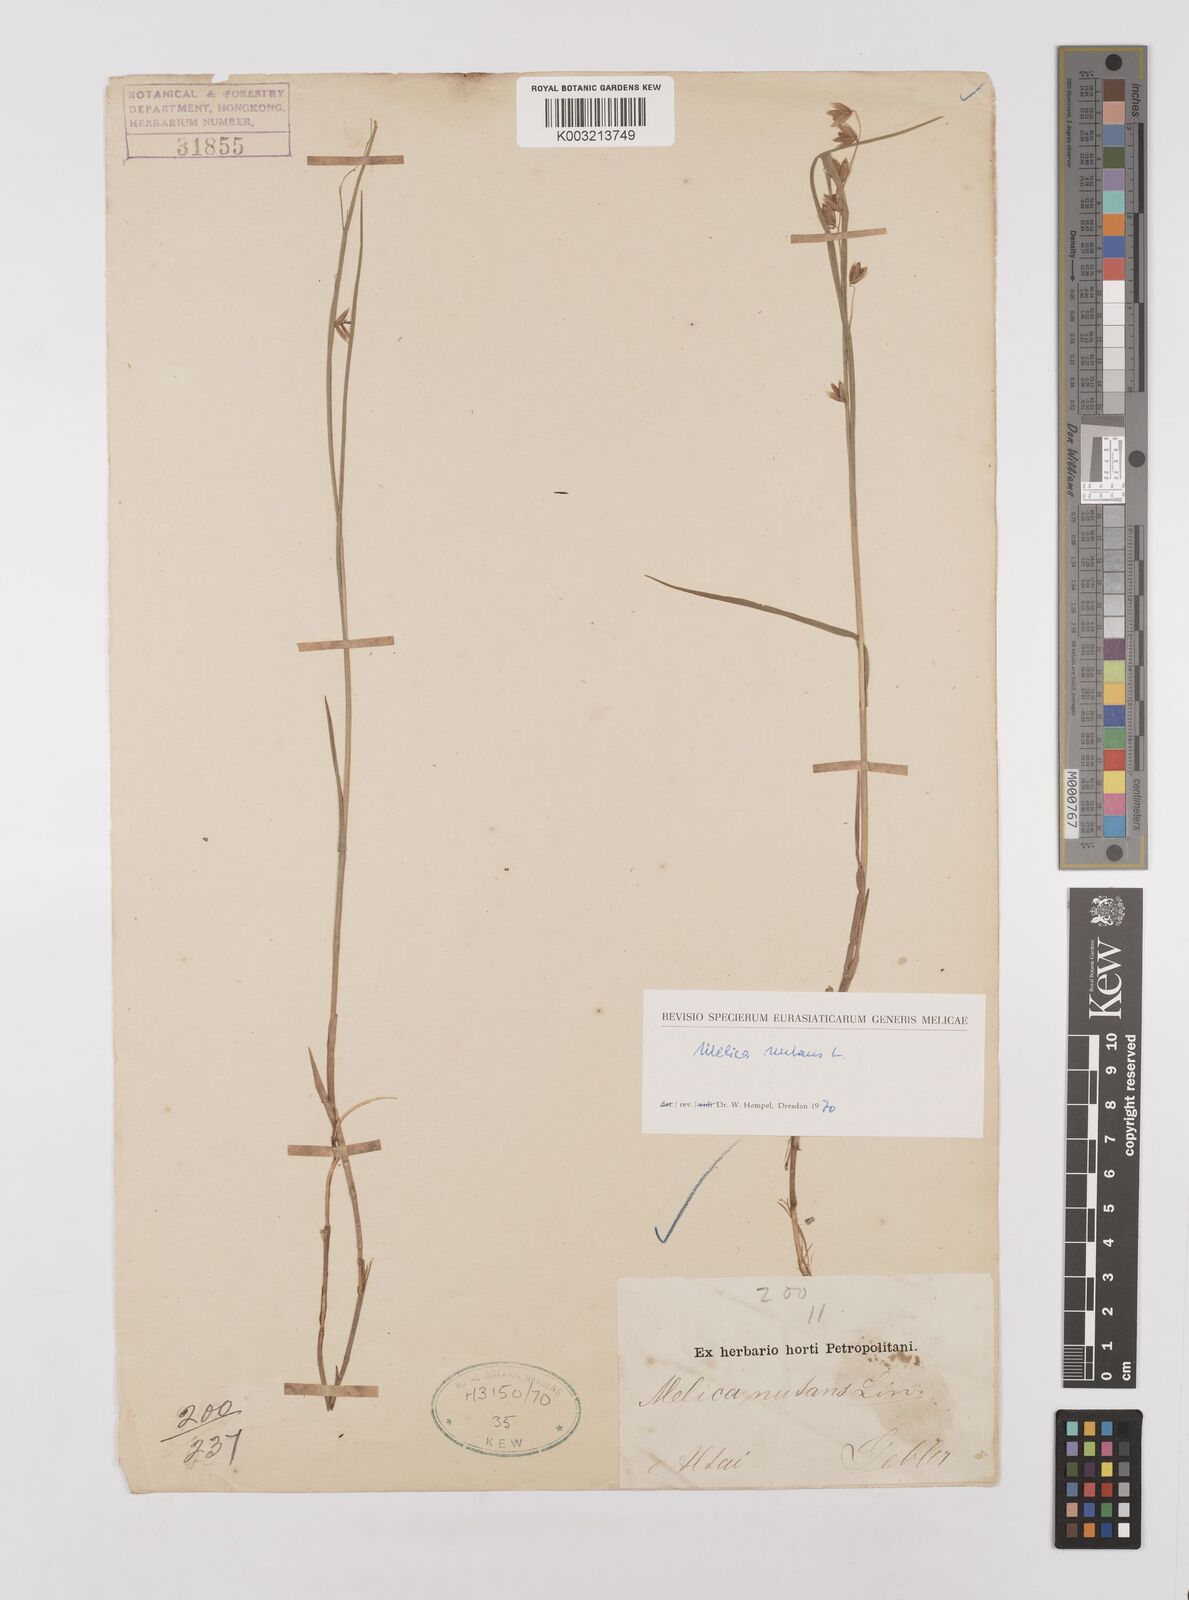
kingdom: Plantae
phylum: Tracheophyta
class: Liliopsida
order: Poales
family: Poaceae
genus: Melica
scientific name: Melica
